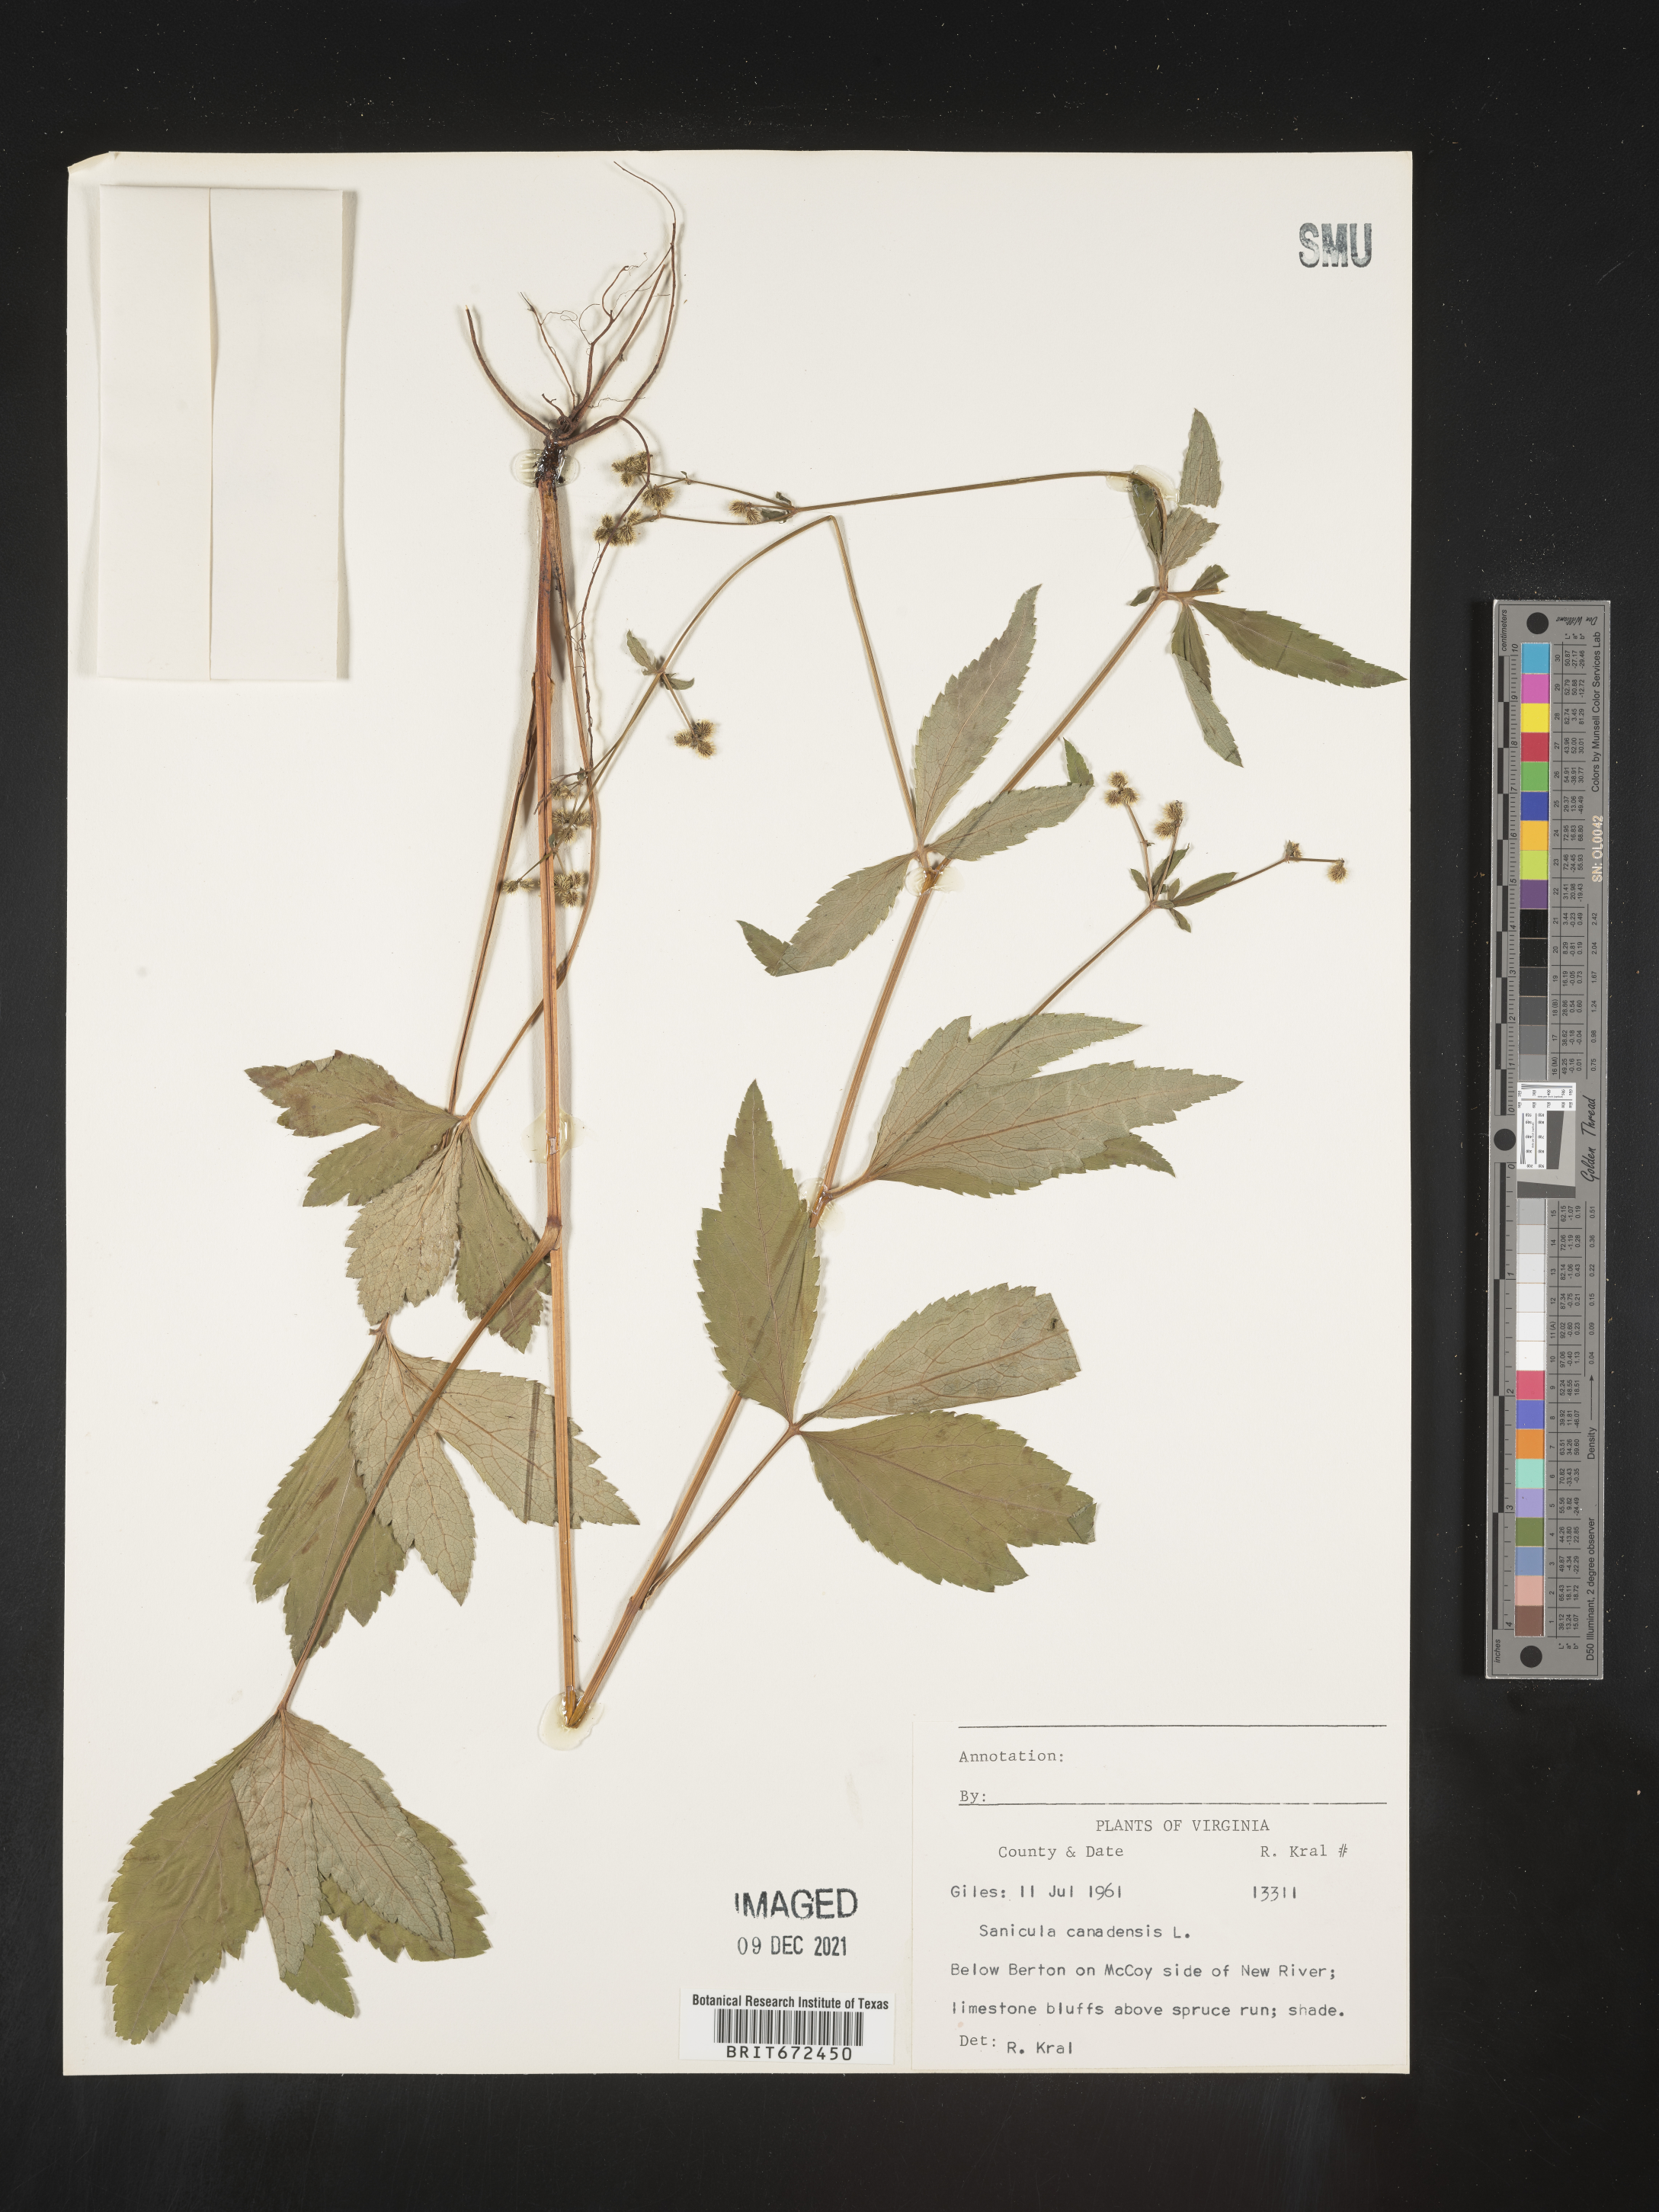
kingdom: Plantae
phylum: Tracheophyta
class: Magnoliopsida
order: Apiales
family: Apiaceae
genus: Sanicula
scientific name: Sanicula canadensis
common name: Canada sanicle
